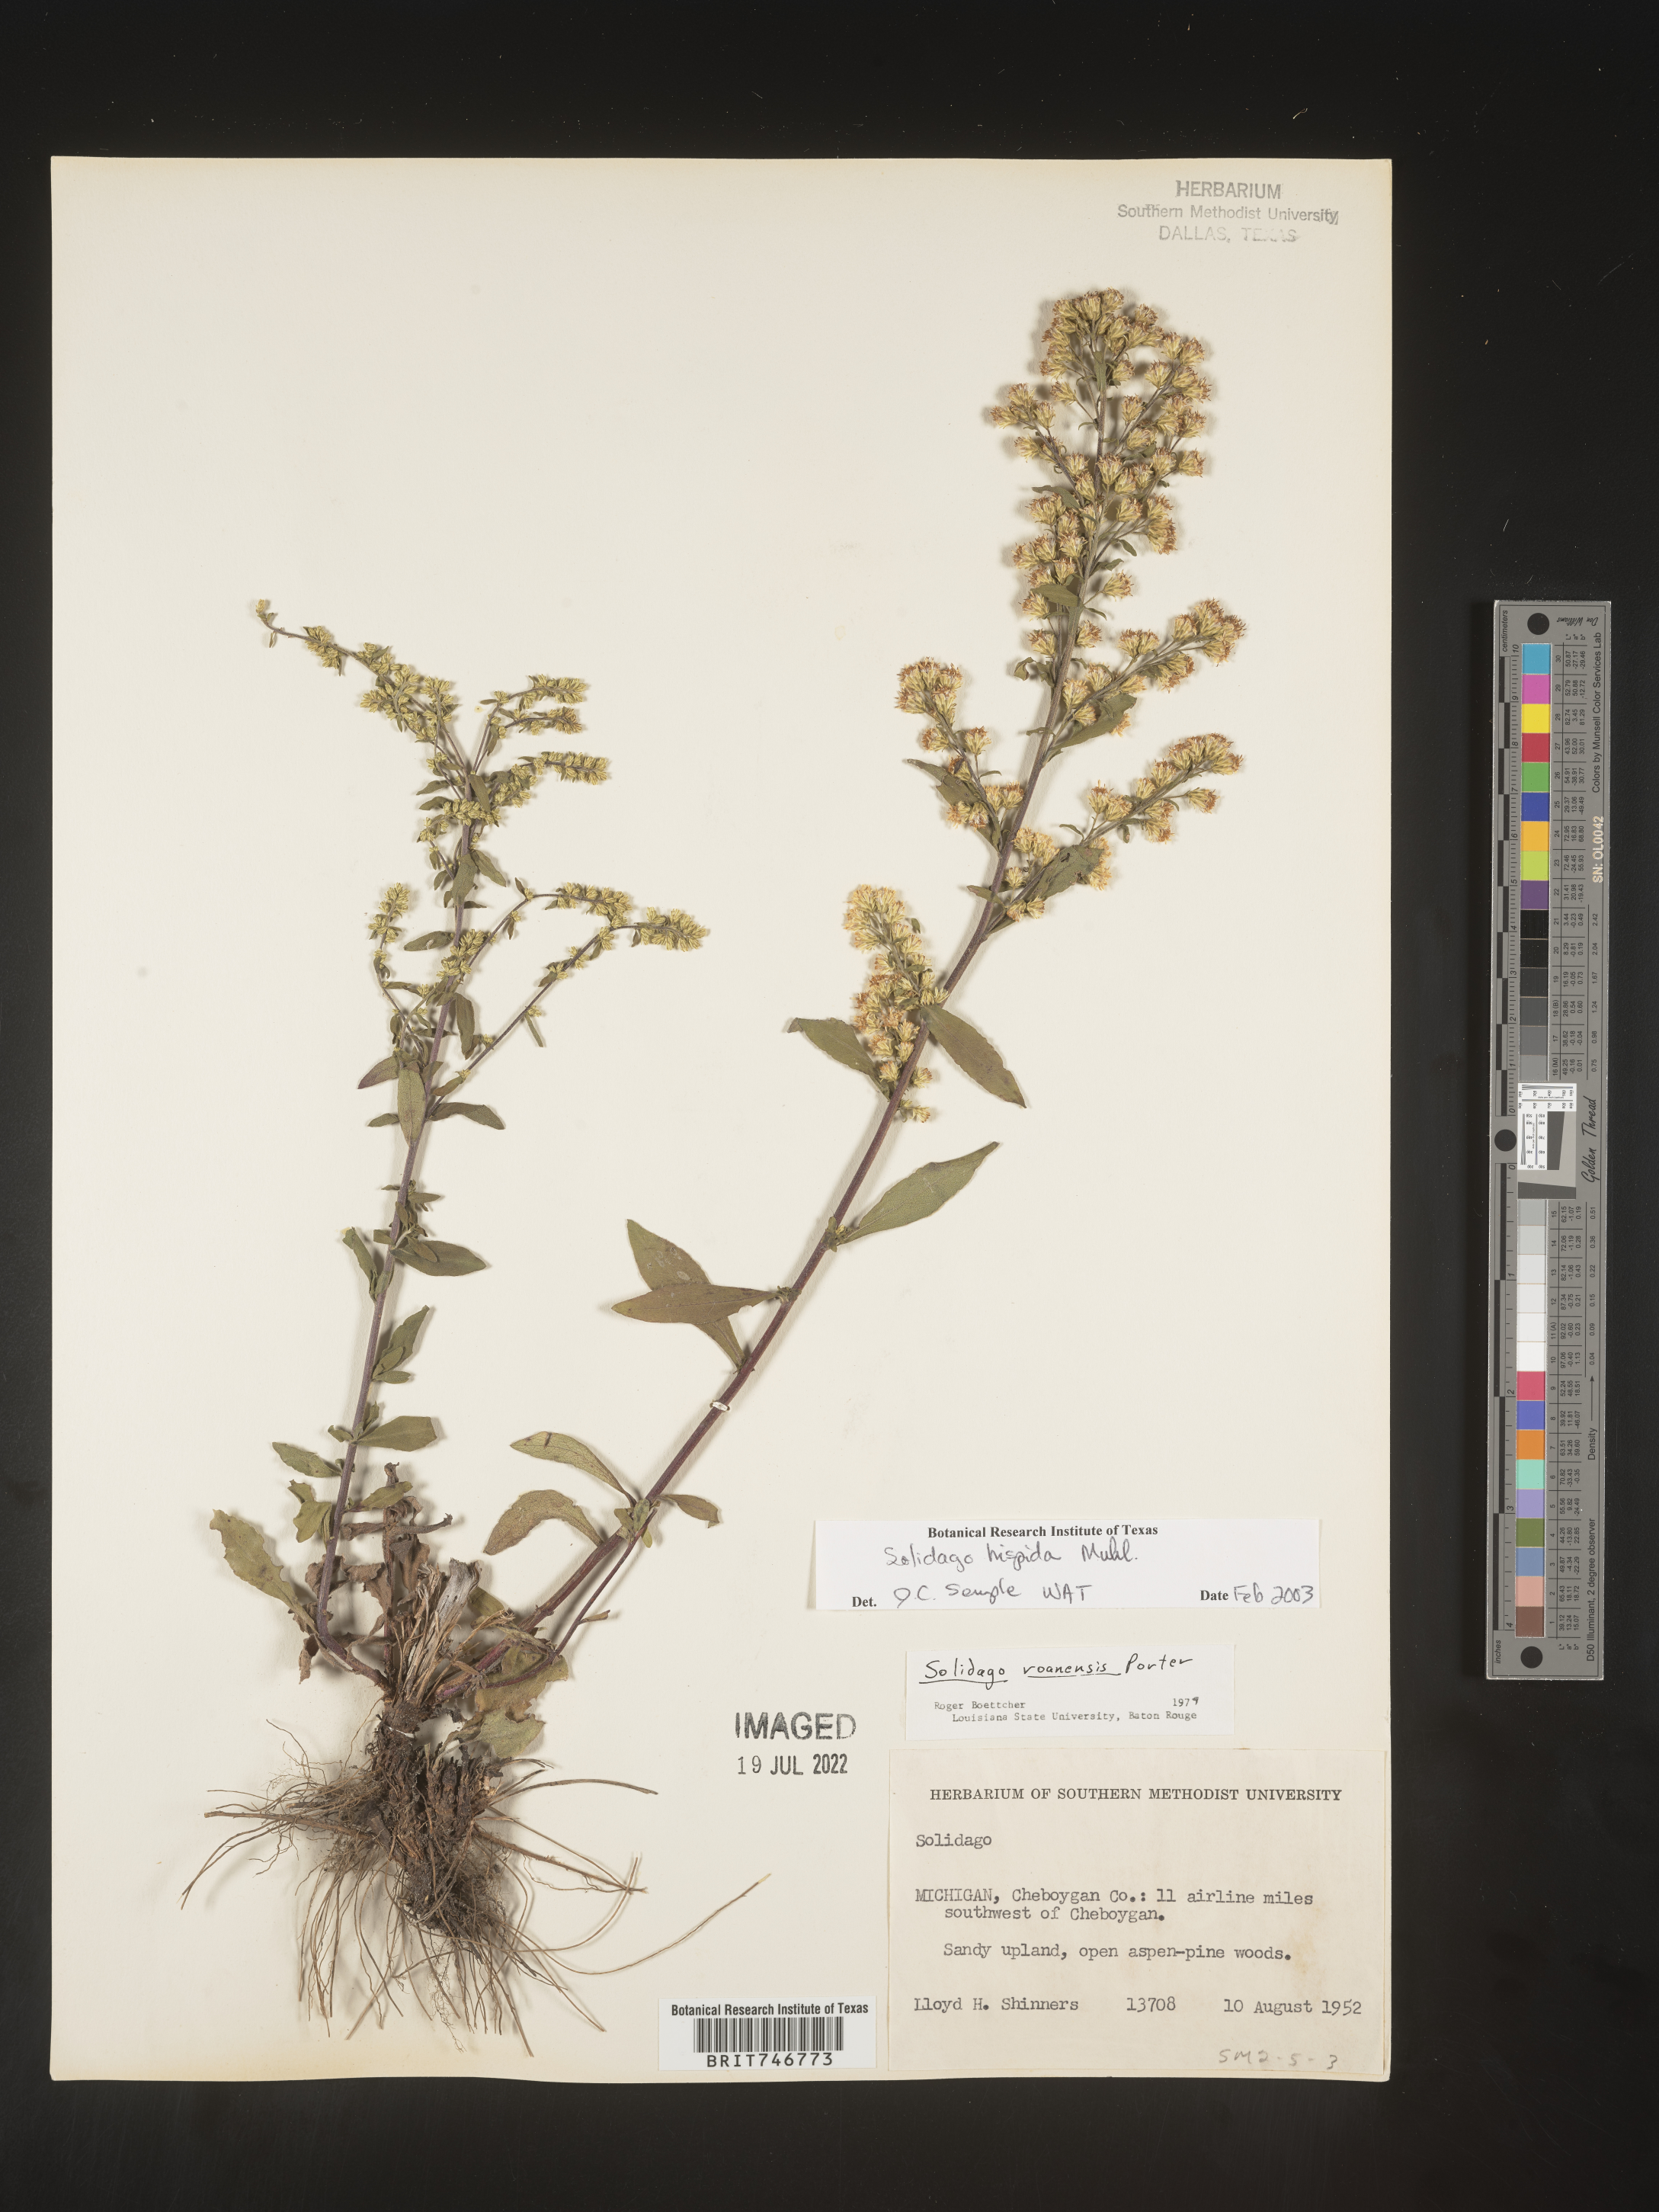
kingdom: Plantae
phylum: Tracheophyta
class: Magnoliopsida
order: Asterales
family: Asteraceae
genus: Solidago
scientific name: Solidago hispida
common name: Hairy goldenrod
